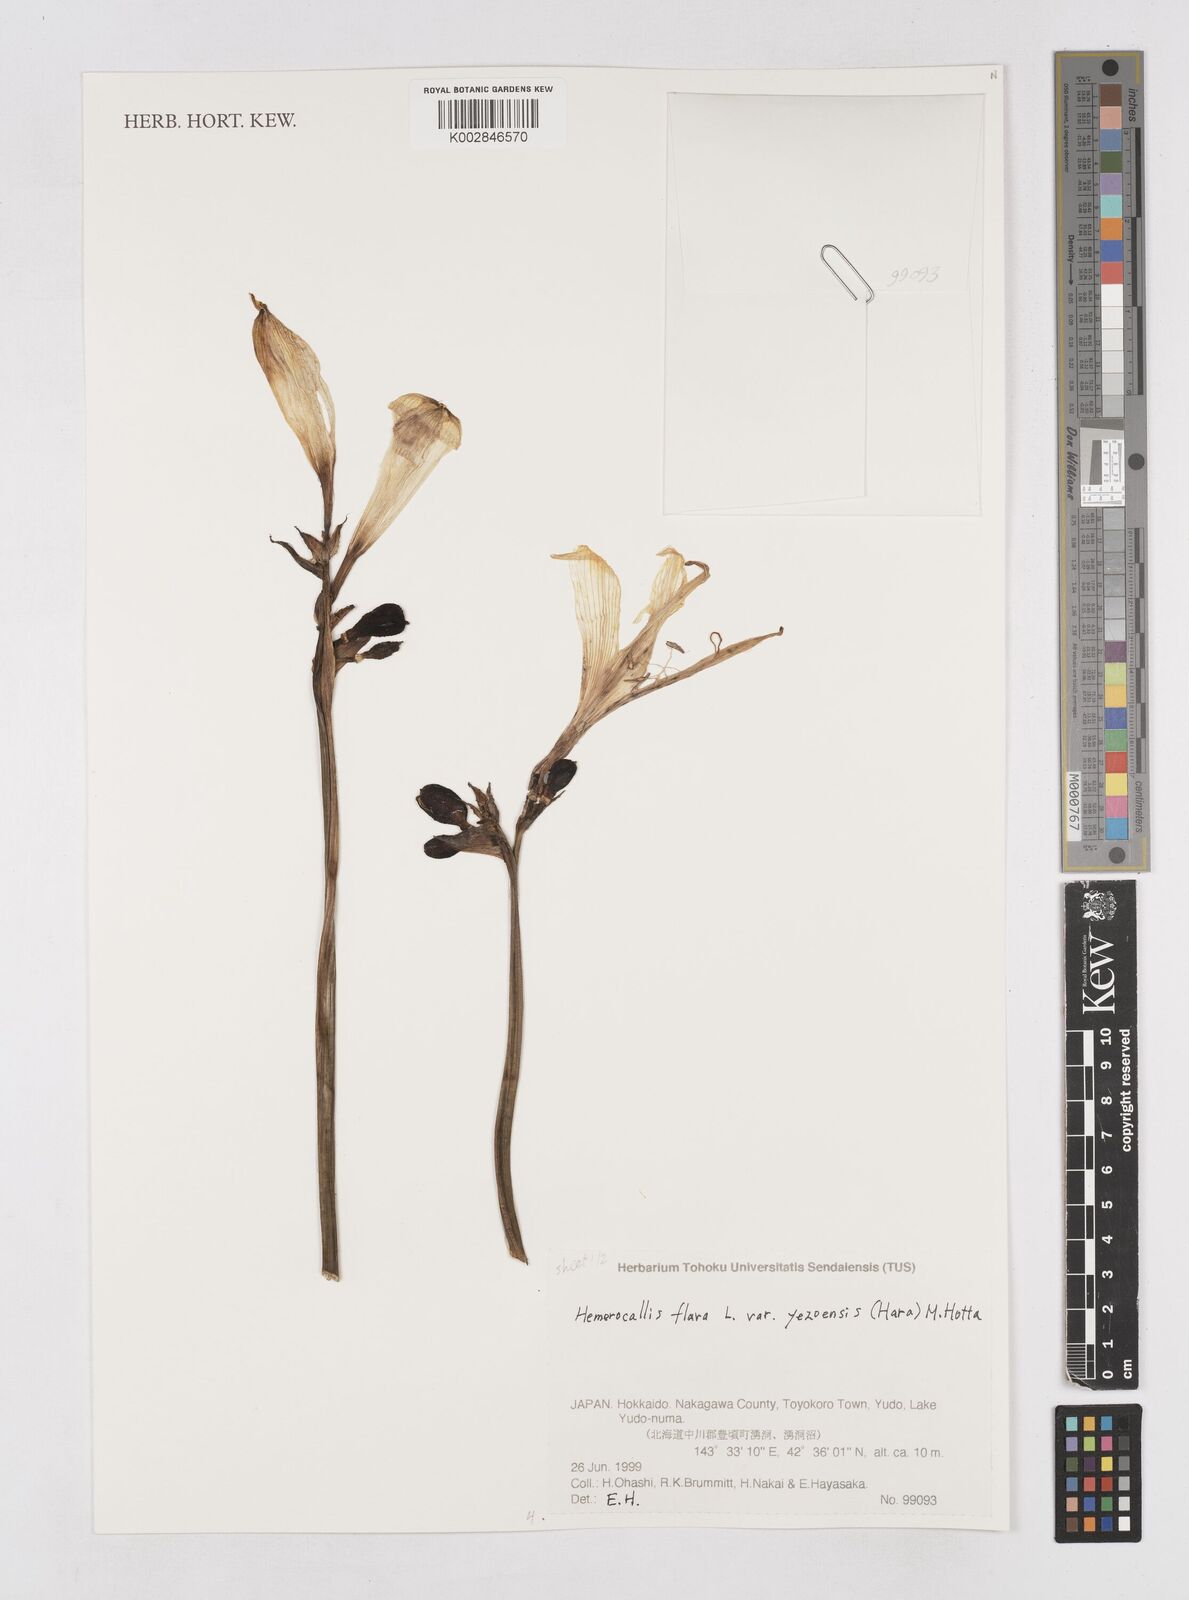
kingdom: Plantae
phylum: Tracheophyta
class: Liliopsida
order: Asparagales
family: Asphodelaceae
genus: Hemerocallis
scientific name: Hemerocallis lilioasphodelus
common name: Yellow day-lily
